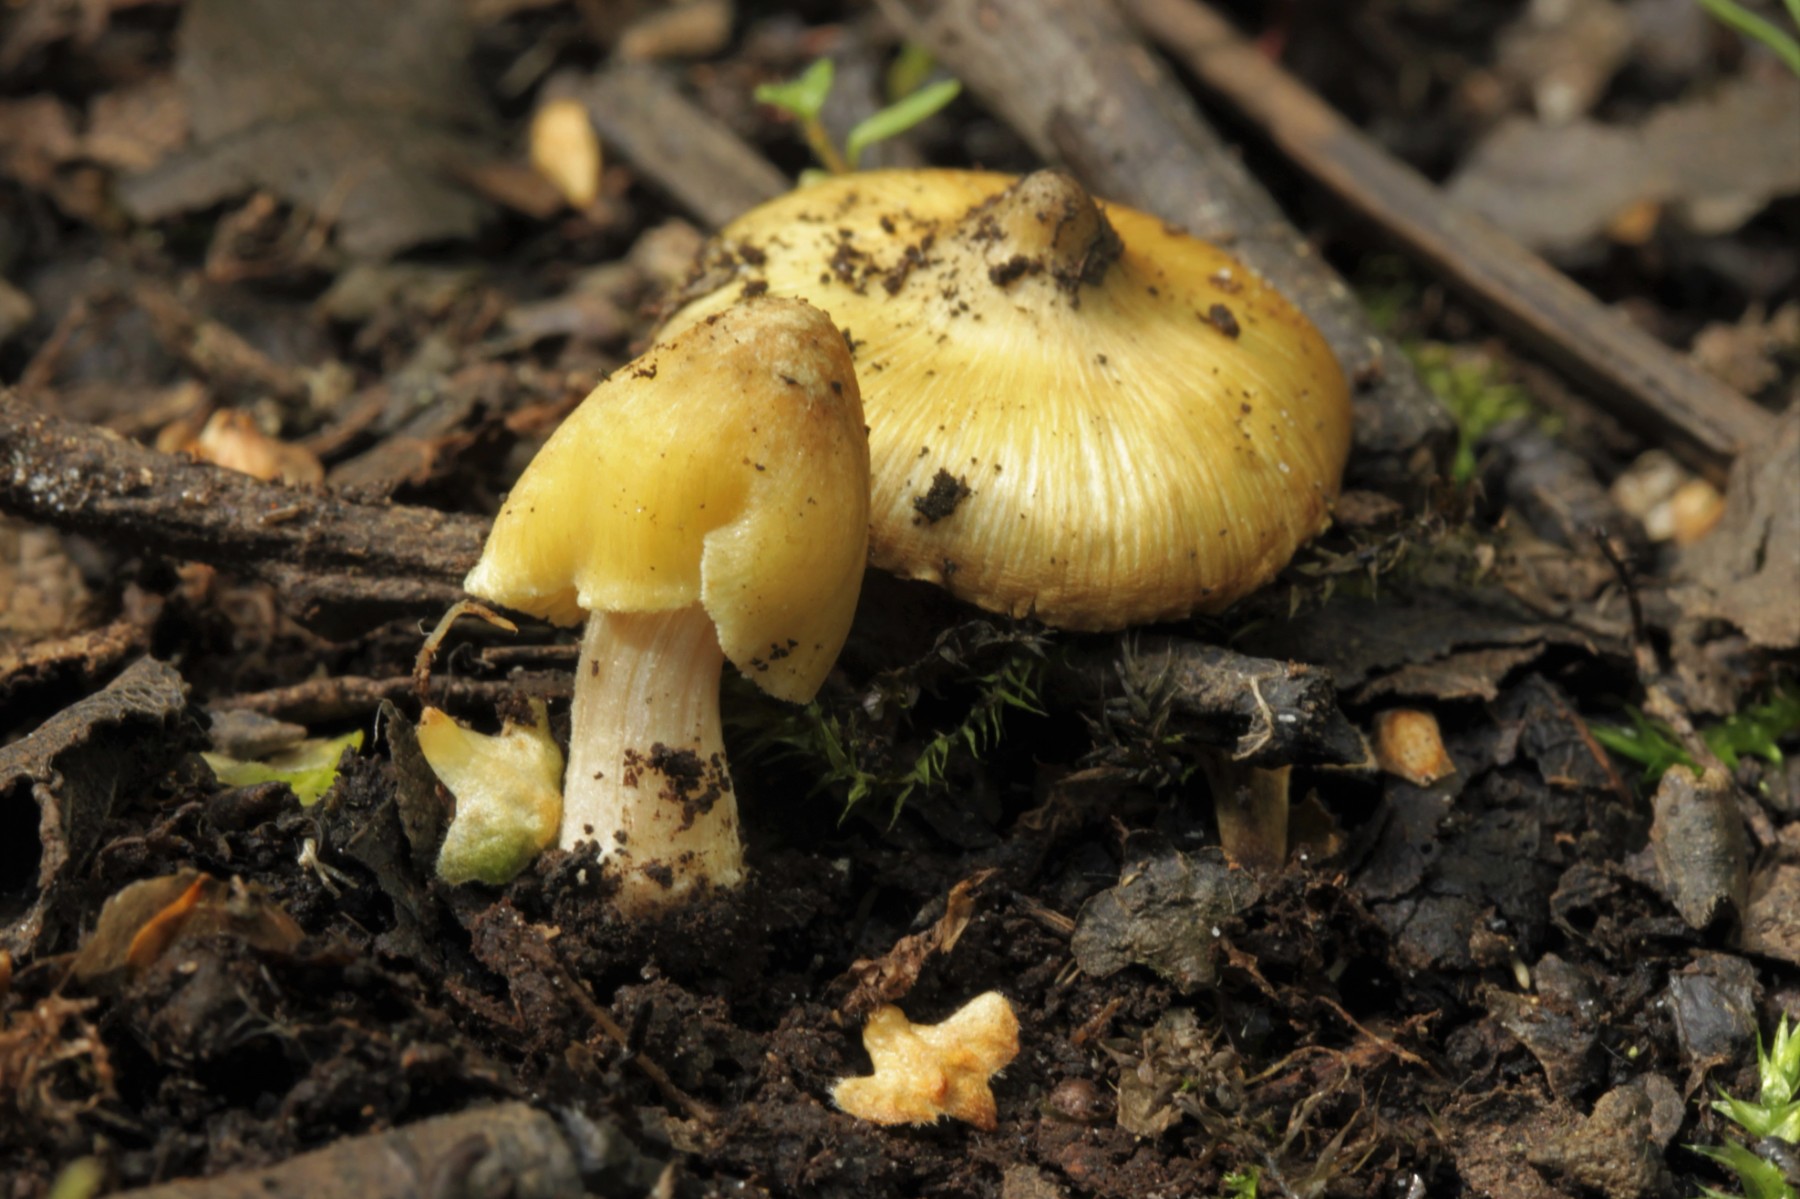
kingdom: Fungi
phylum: Basidiomycota
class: Agaricomycetes
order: Agaricales
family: Inocybaceae
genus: Pseudosperma
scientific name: Pseudosperma
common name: trævlhat
